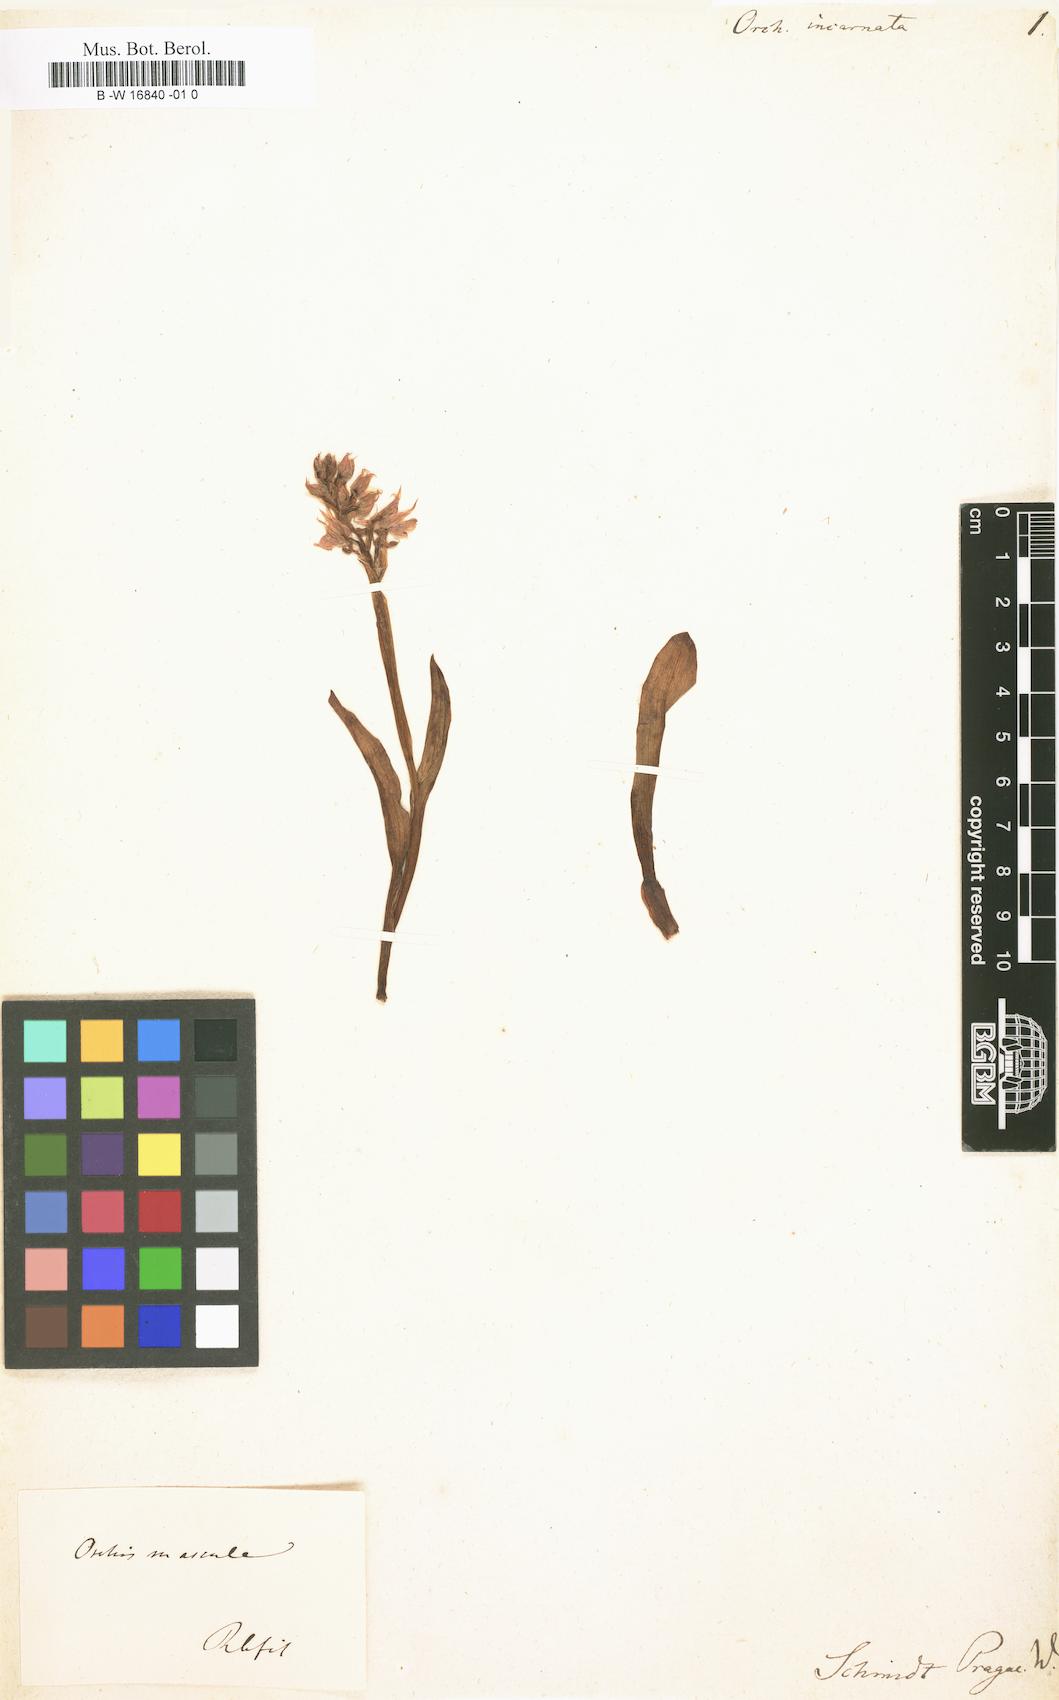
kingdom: Plantae
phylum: Tracheophyta
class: Liliopsida
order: Asparagales
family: Orchidaceae
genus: Dactylorhiza
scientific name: Dactylorhiza incarnata
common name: Early marsh-orchid
